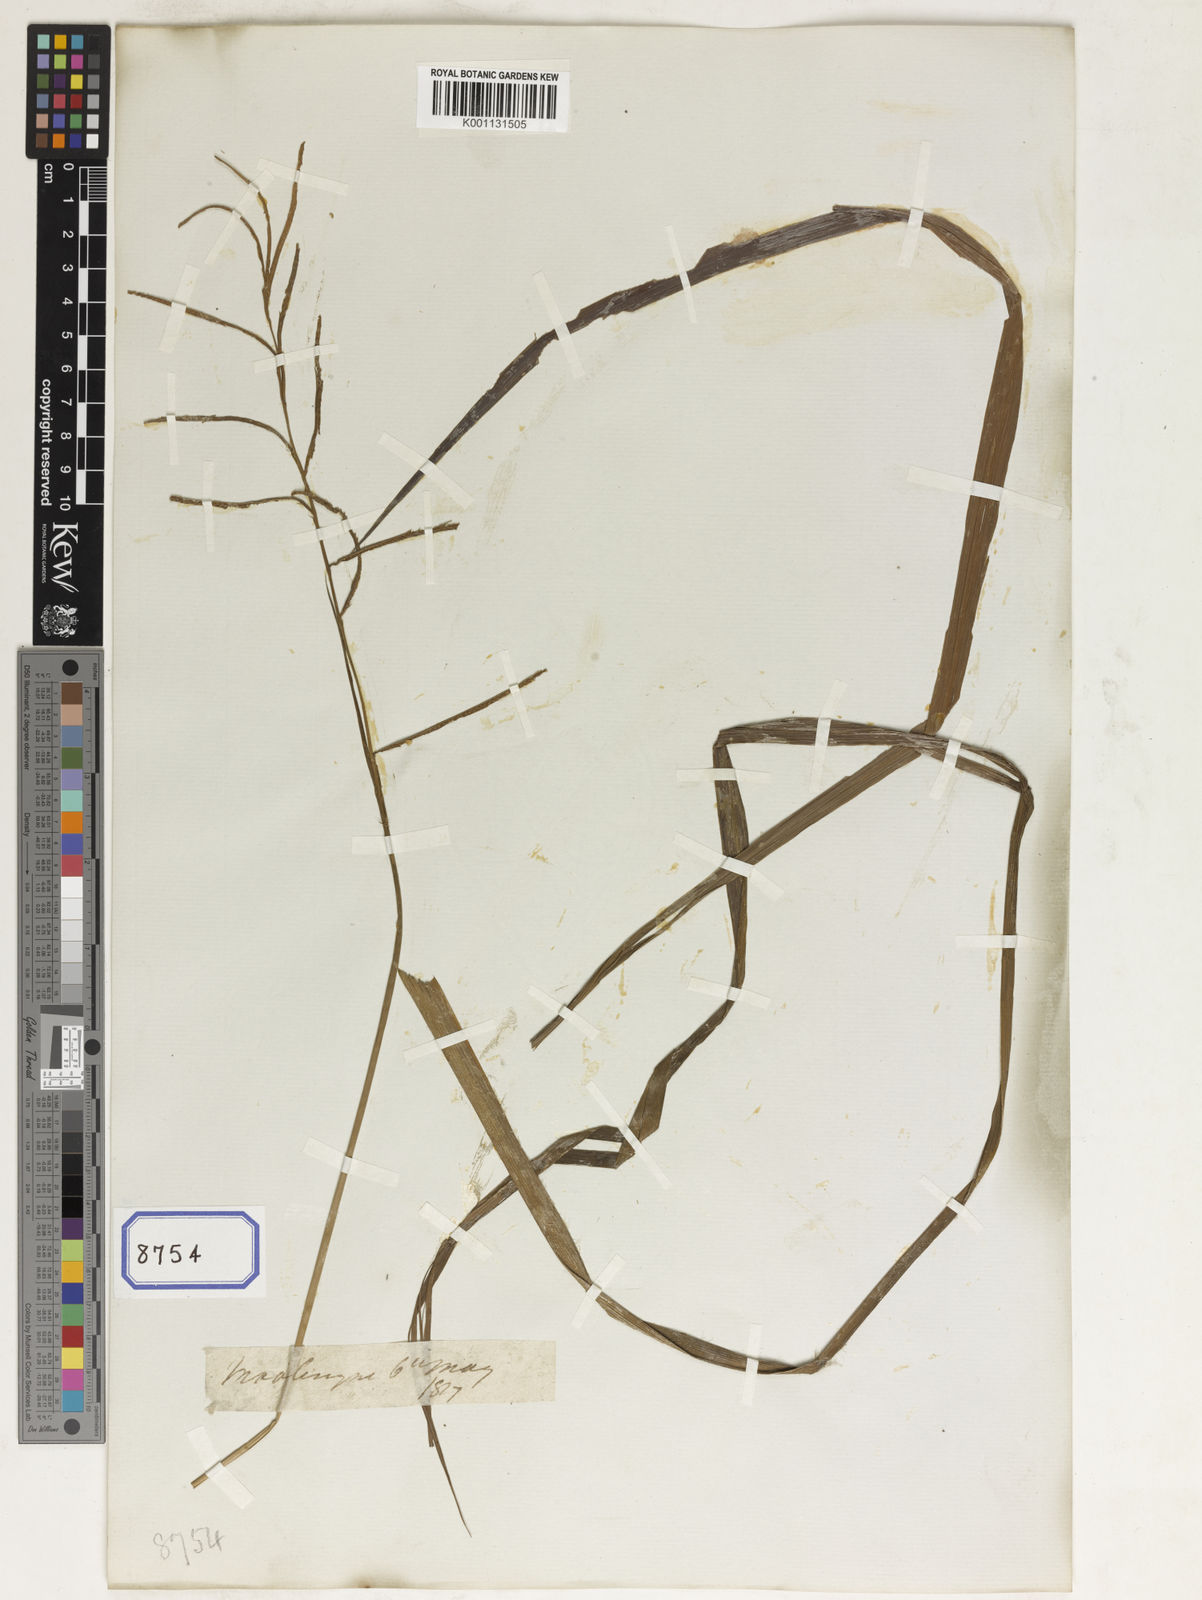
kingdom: Plantae
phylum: Tracheophyta
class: Liliopsida
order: Poales
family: Poaceae
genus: Paspalum
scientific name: Paspalum
